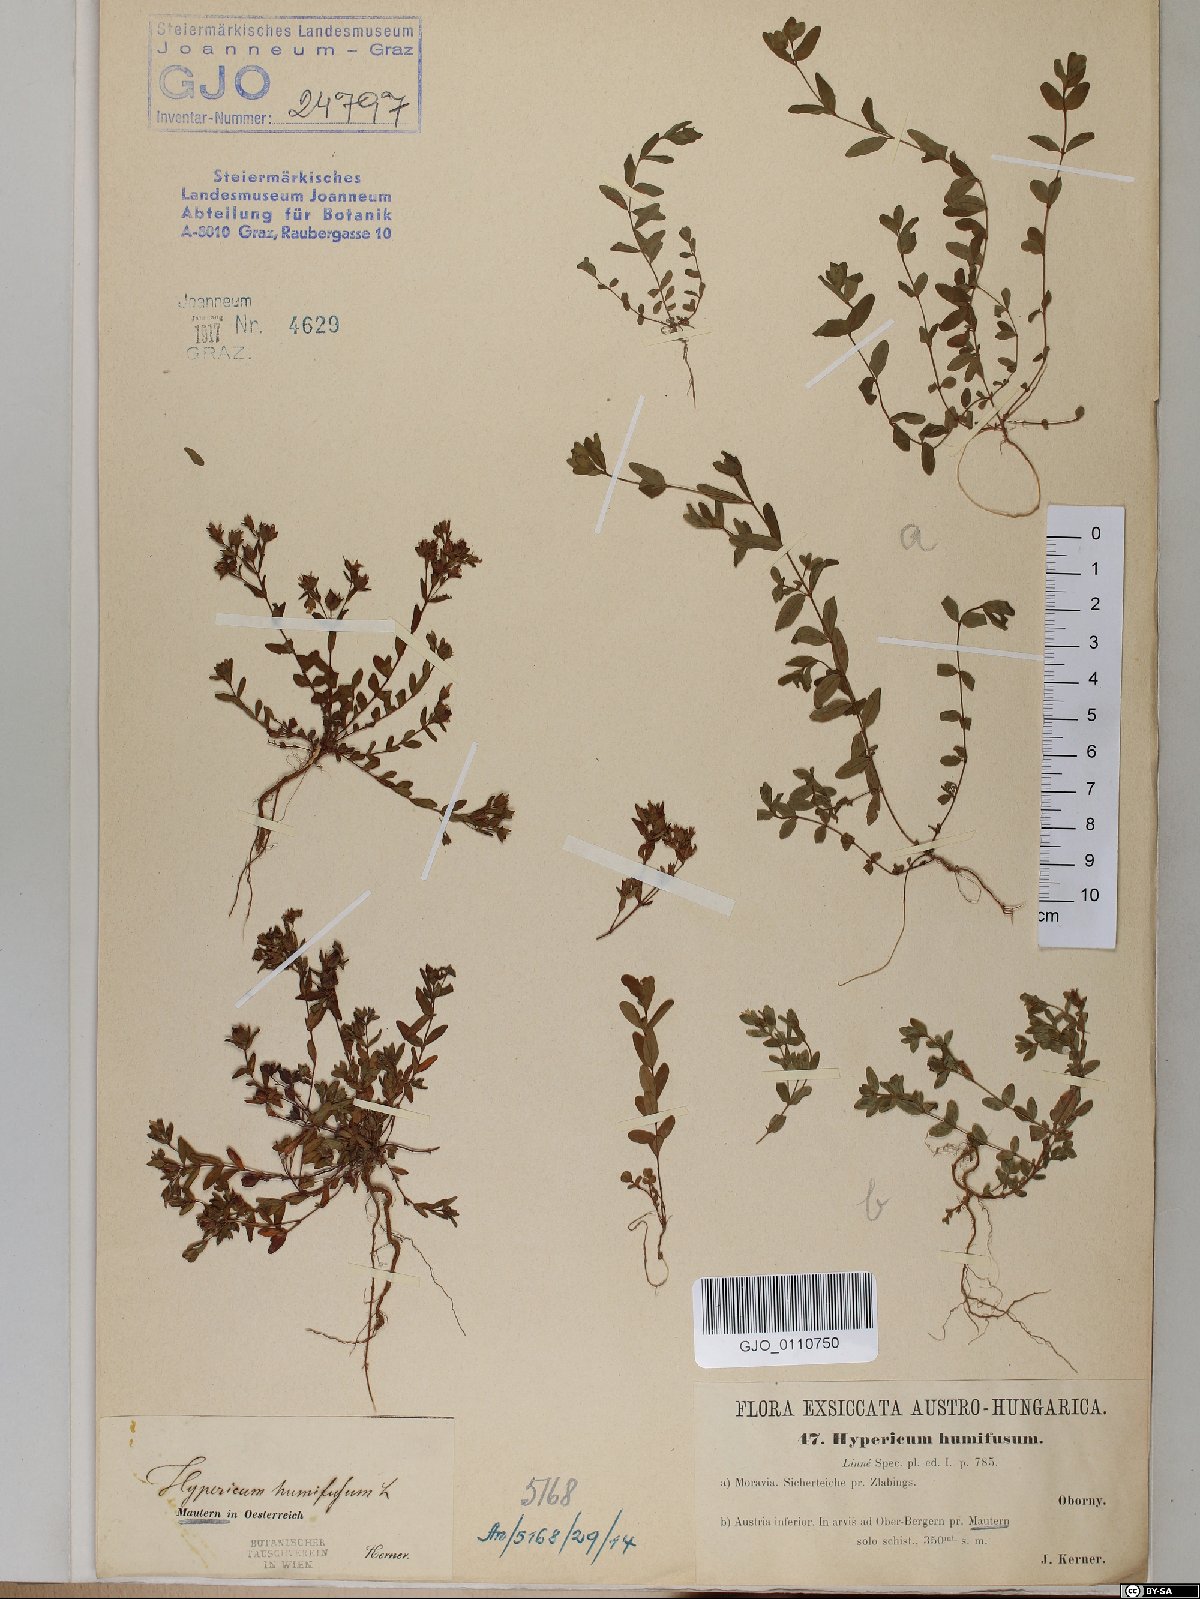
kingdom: Plantae
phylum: Tracheophyta
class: Magnoliopsida
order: Malpighiales
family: Hypericaceae
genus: Hypericum
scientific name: Hypericum humifusum
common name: Trailing st. john's-wort
